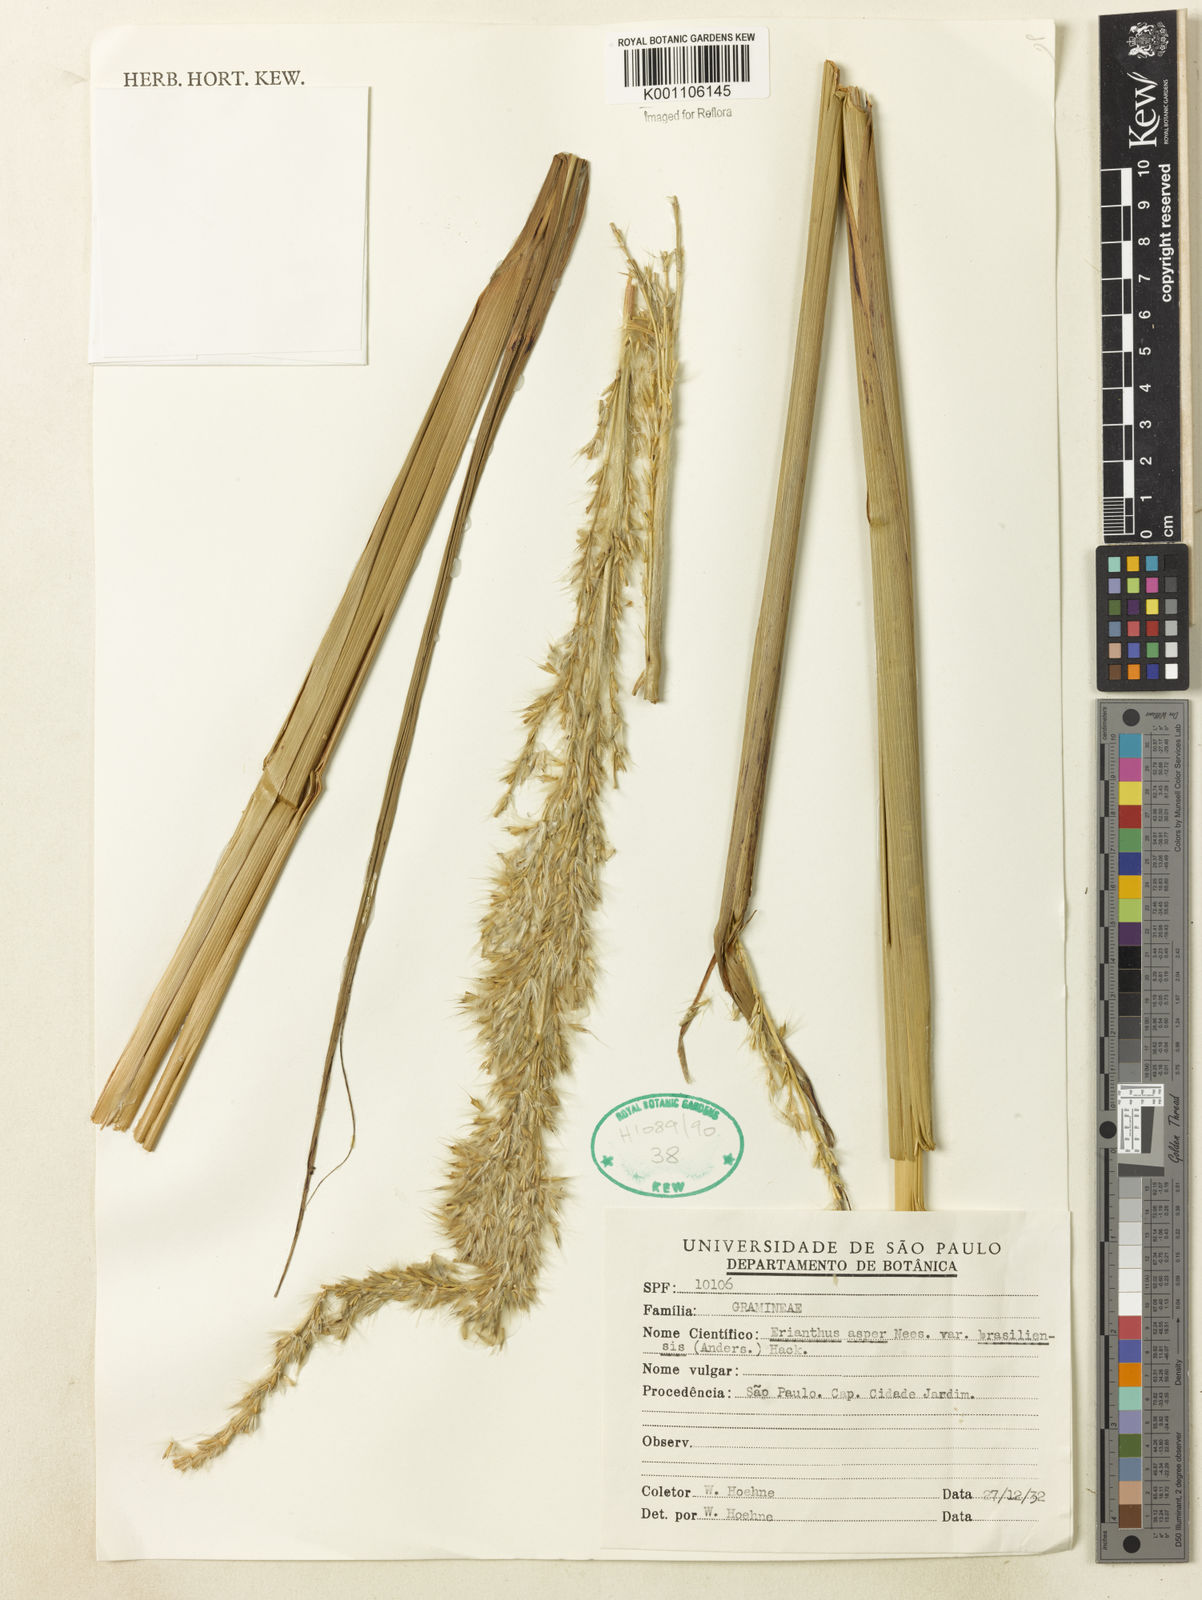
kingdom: Plantae
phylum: Tracheophyta
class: Liliopsida
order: Poales
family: Poaceae
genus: Saccharum
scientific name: Saccharum
